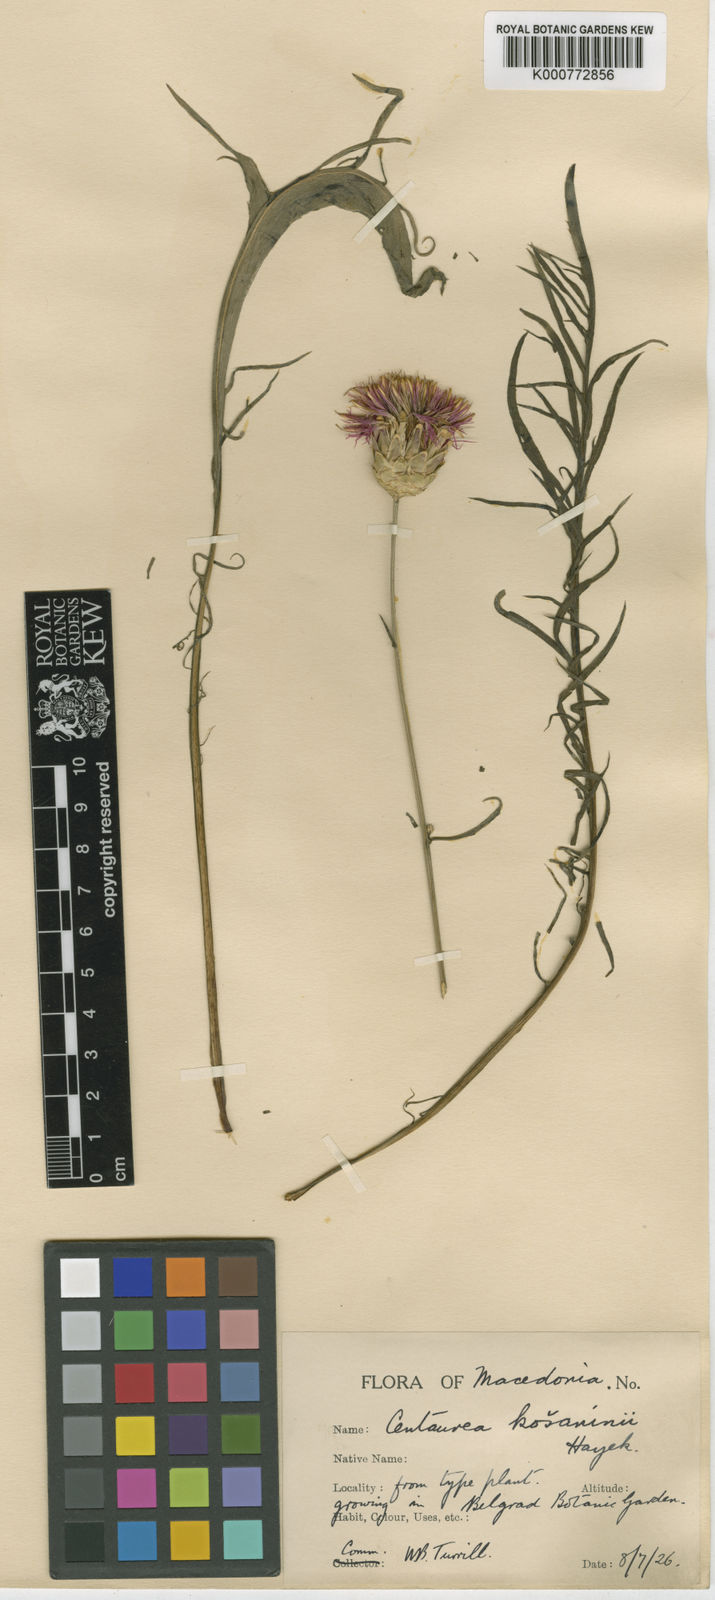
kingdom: Plantae
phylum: Tracheophyta
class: Magnoliopsida
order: Asterales
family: Asteraceae
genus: Centaurea
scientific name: Centaurea kosaninii
